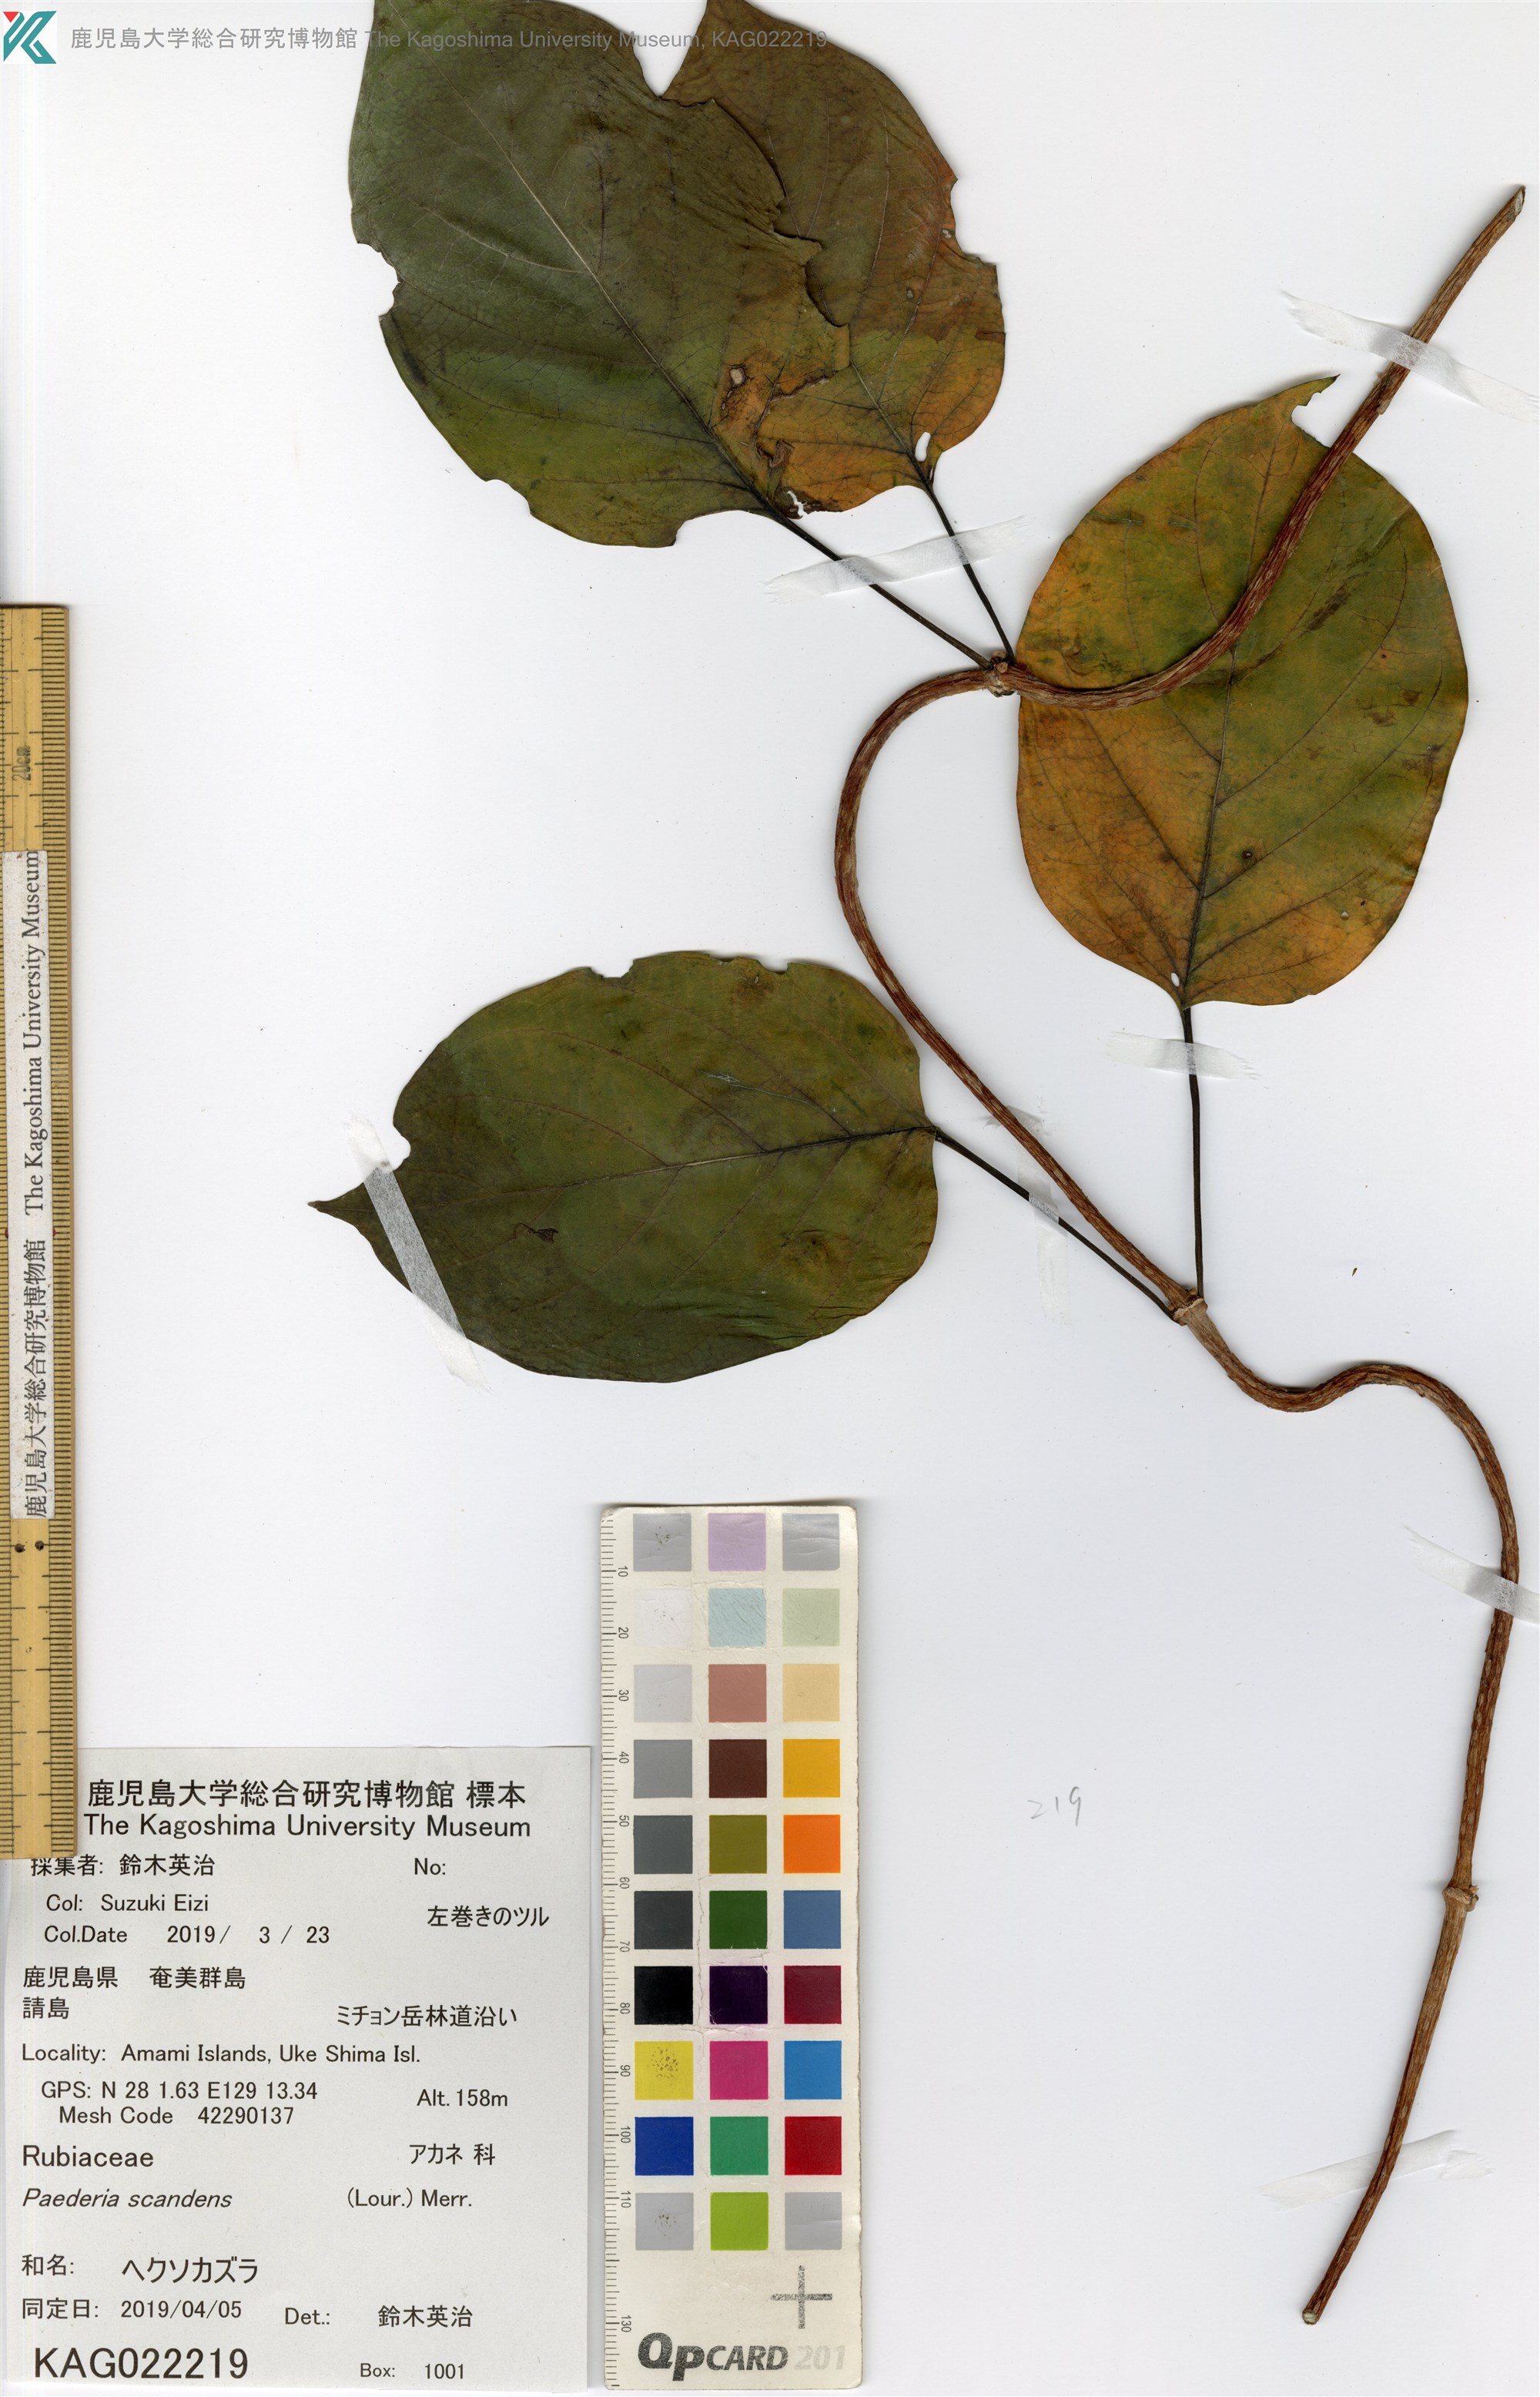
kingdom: Plantae
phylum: Tracheophyta
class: Magnoliopsida
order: Gentianales
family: Rubiaceae
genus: Paederia
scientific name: Paederia foetida
